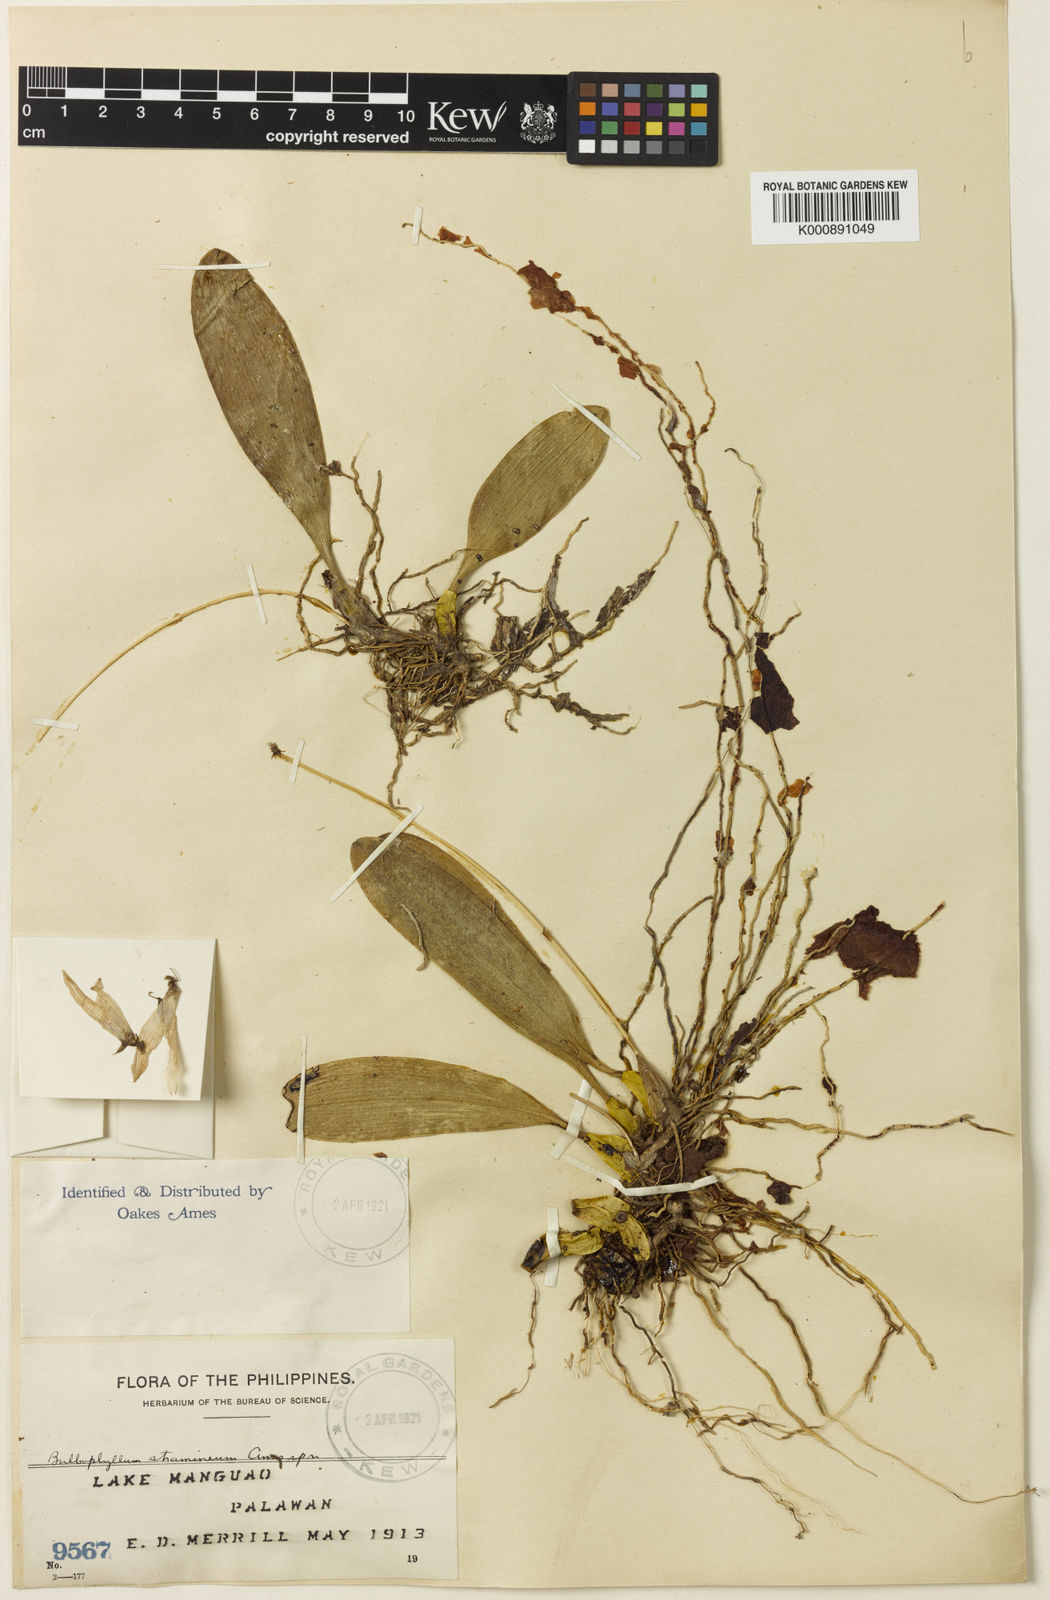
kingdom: Plantae
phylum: Tracheophyta
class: Liliopsida
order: Asparagales
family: Orchidaceae
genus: Bulbophyllum
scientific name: Bulbophyllum cumingii
